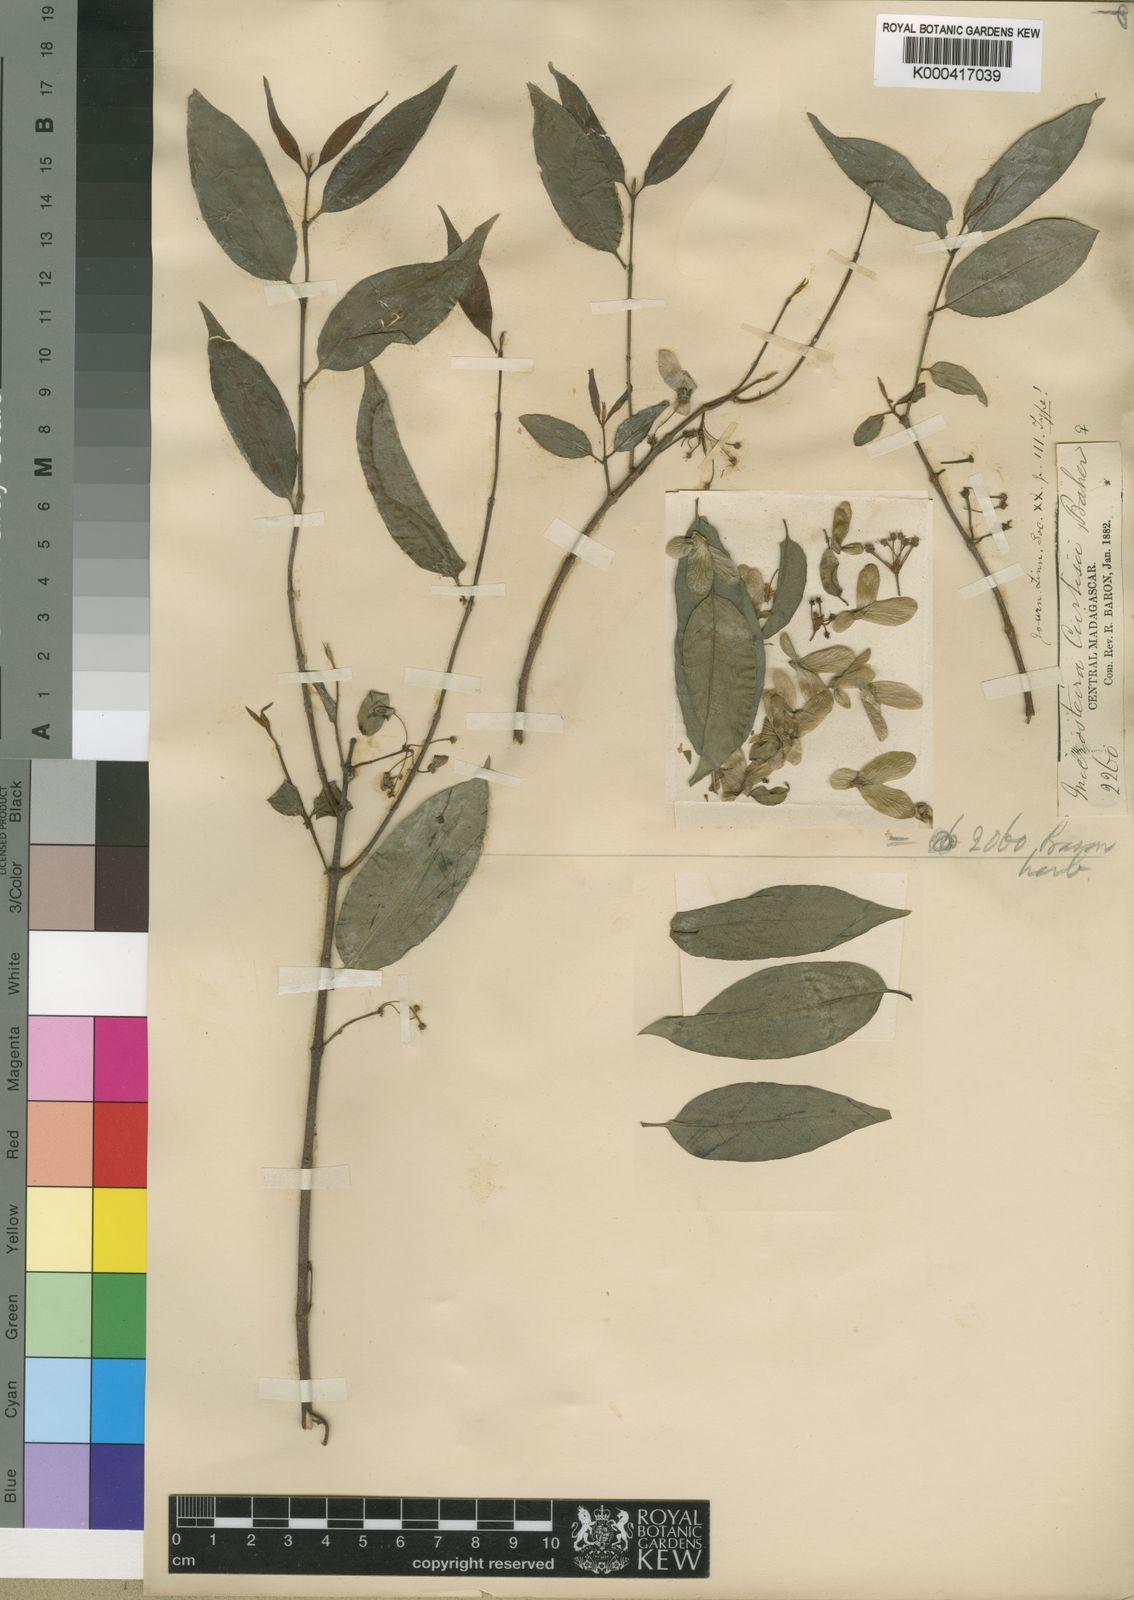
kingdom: Plantae
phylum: Tracheophyta
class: Magnoliopsida
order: Malpighiales
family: Malpighiaceae
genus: Microsteira
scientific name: Microsteira curtisii
